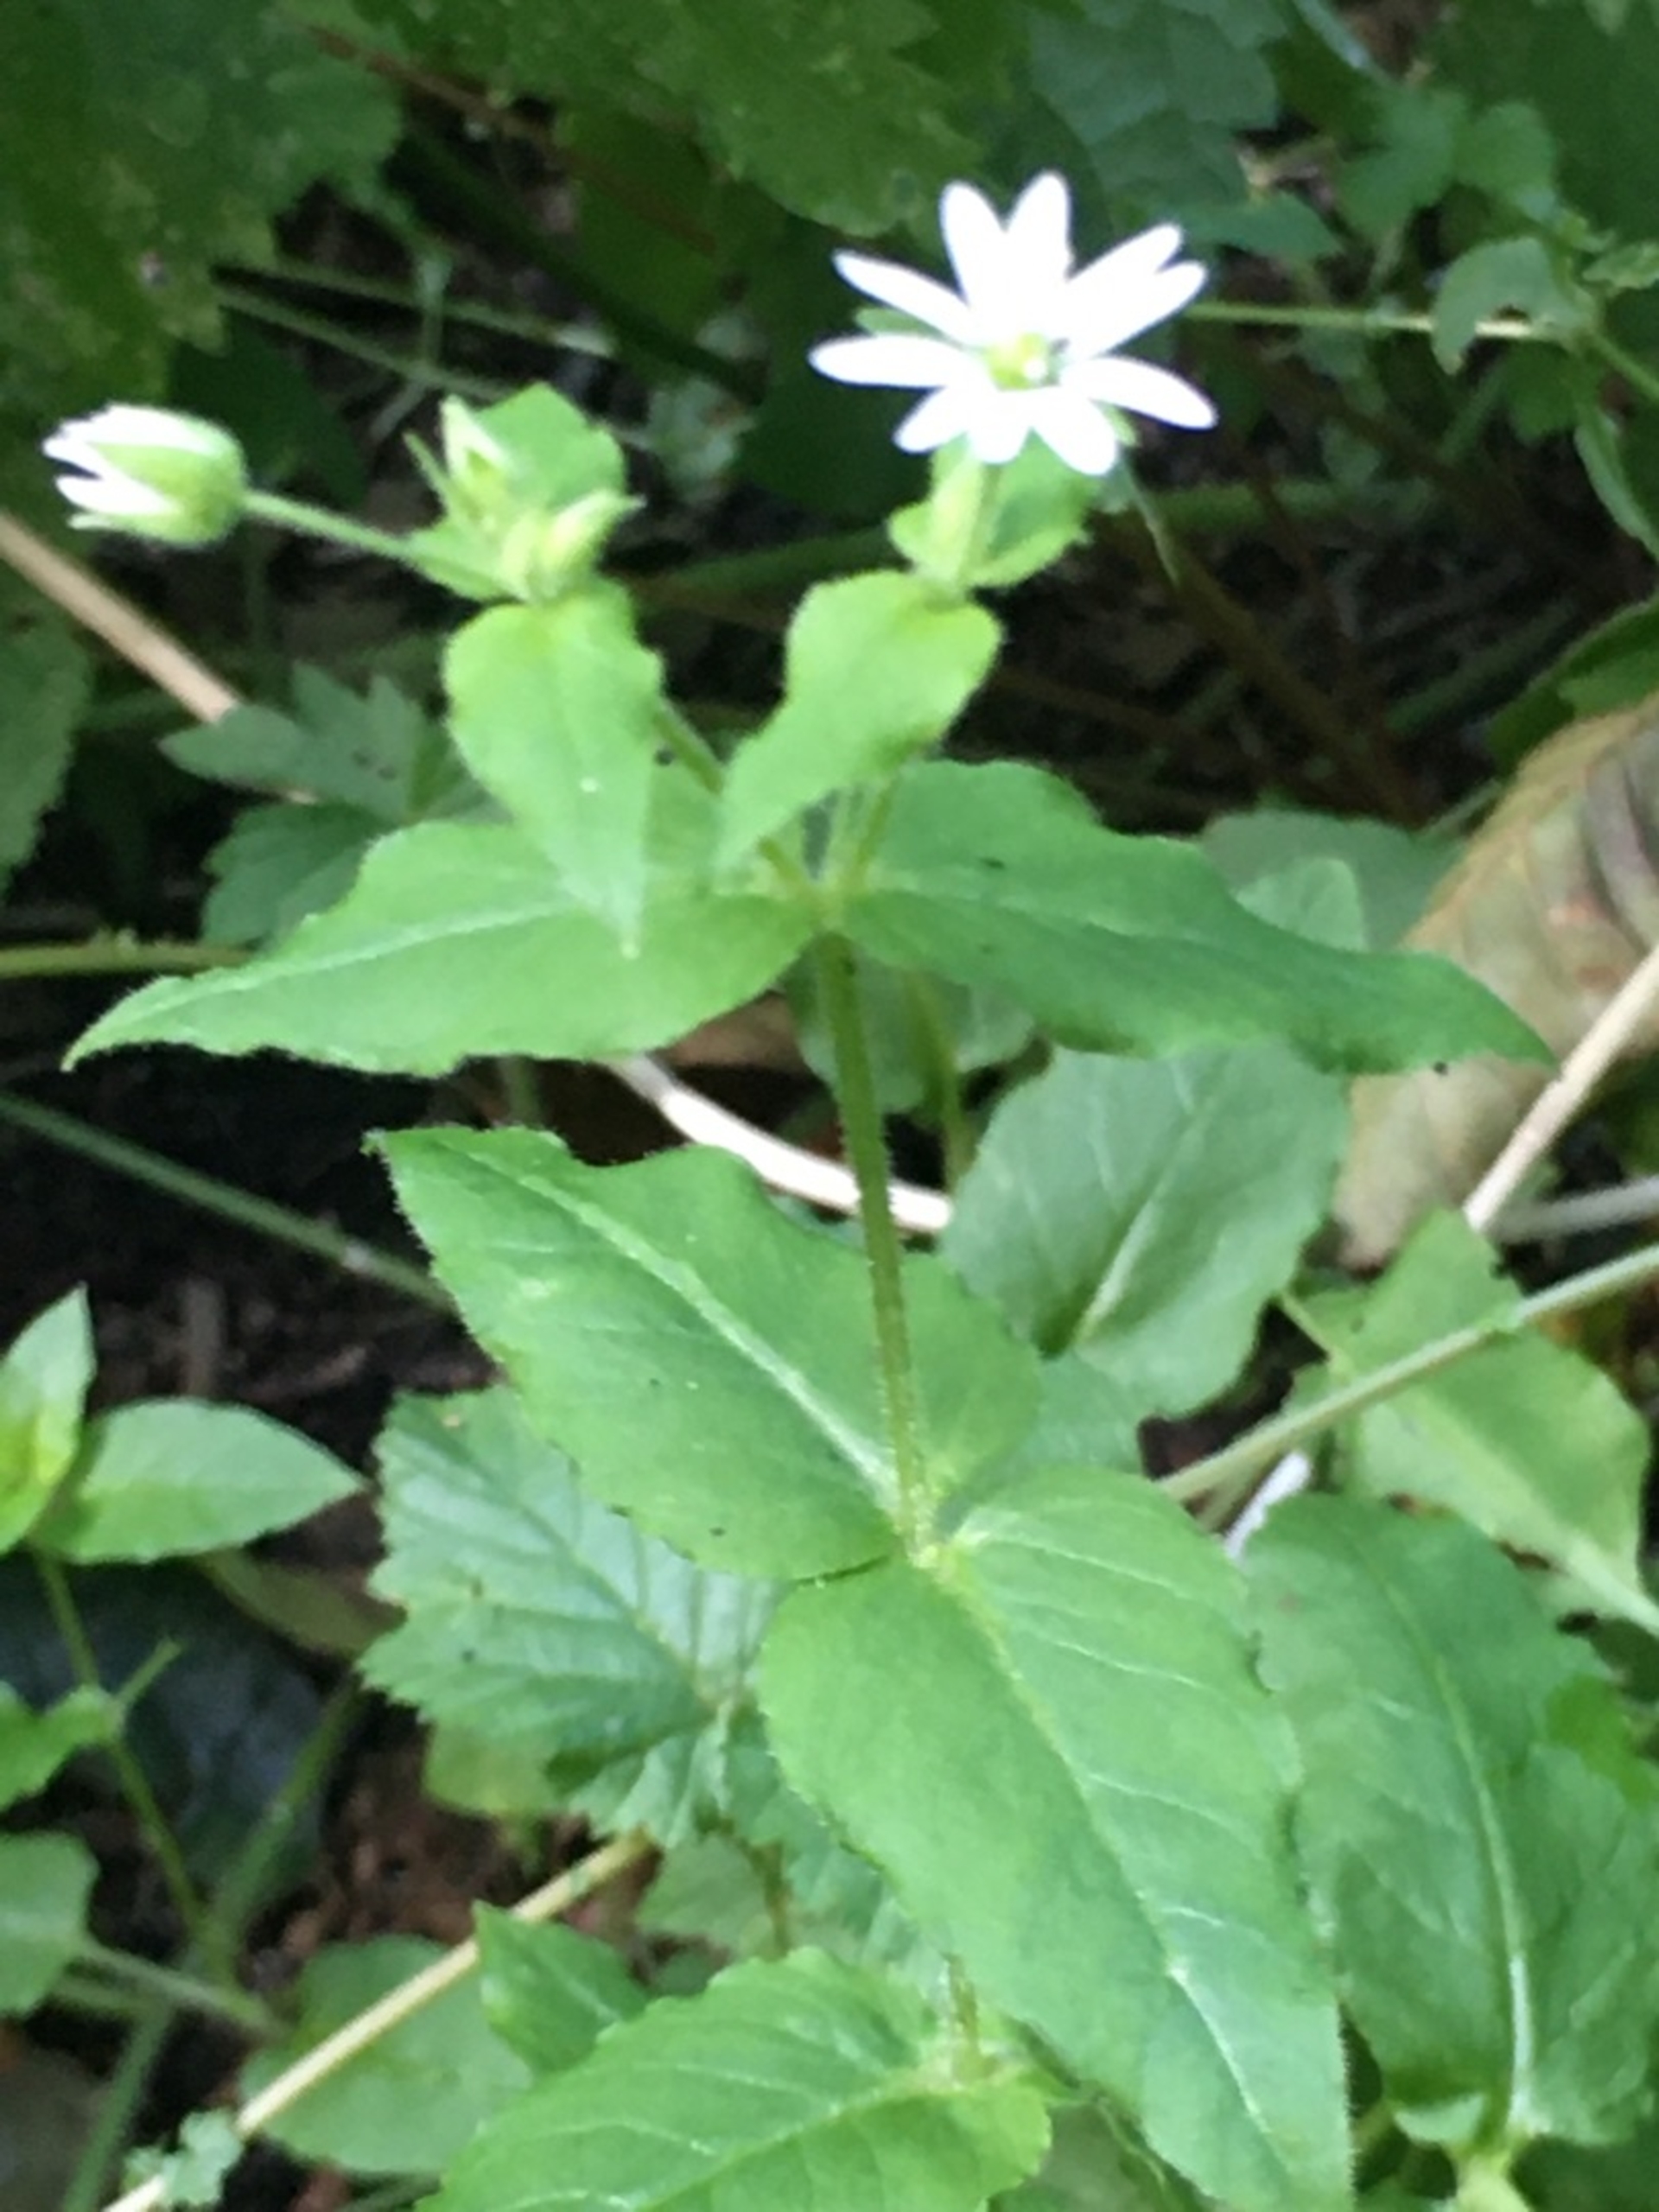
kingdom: Plantae
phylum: Tracheophyta
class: Magnoliopsida
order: Caryophyllales
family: Caryophyllaceae
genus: Stellaria
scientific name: Stellaria aquatica
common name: Kløvkrone
